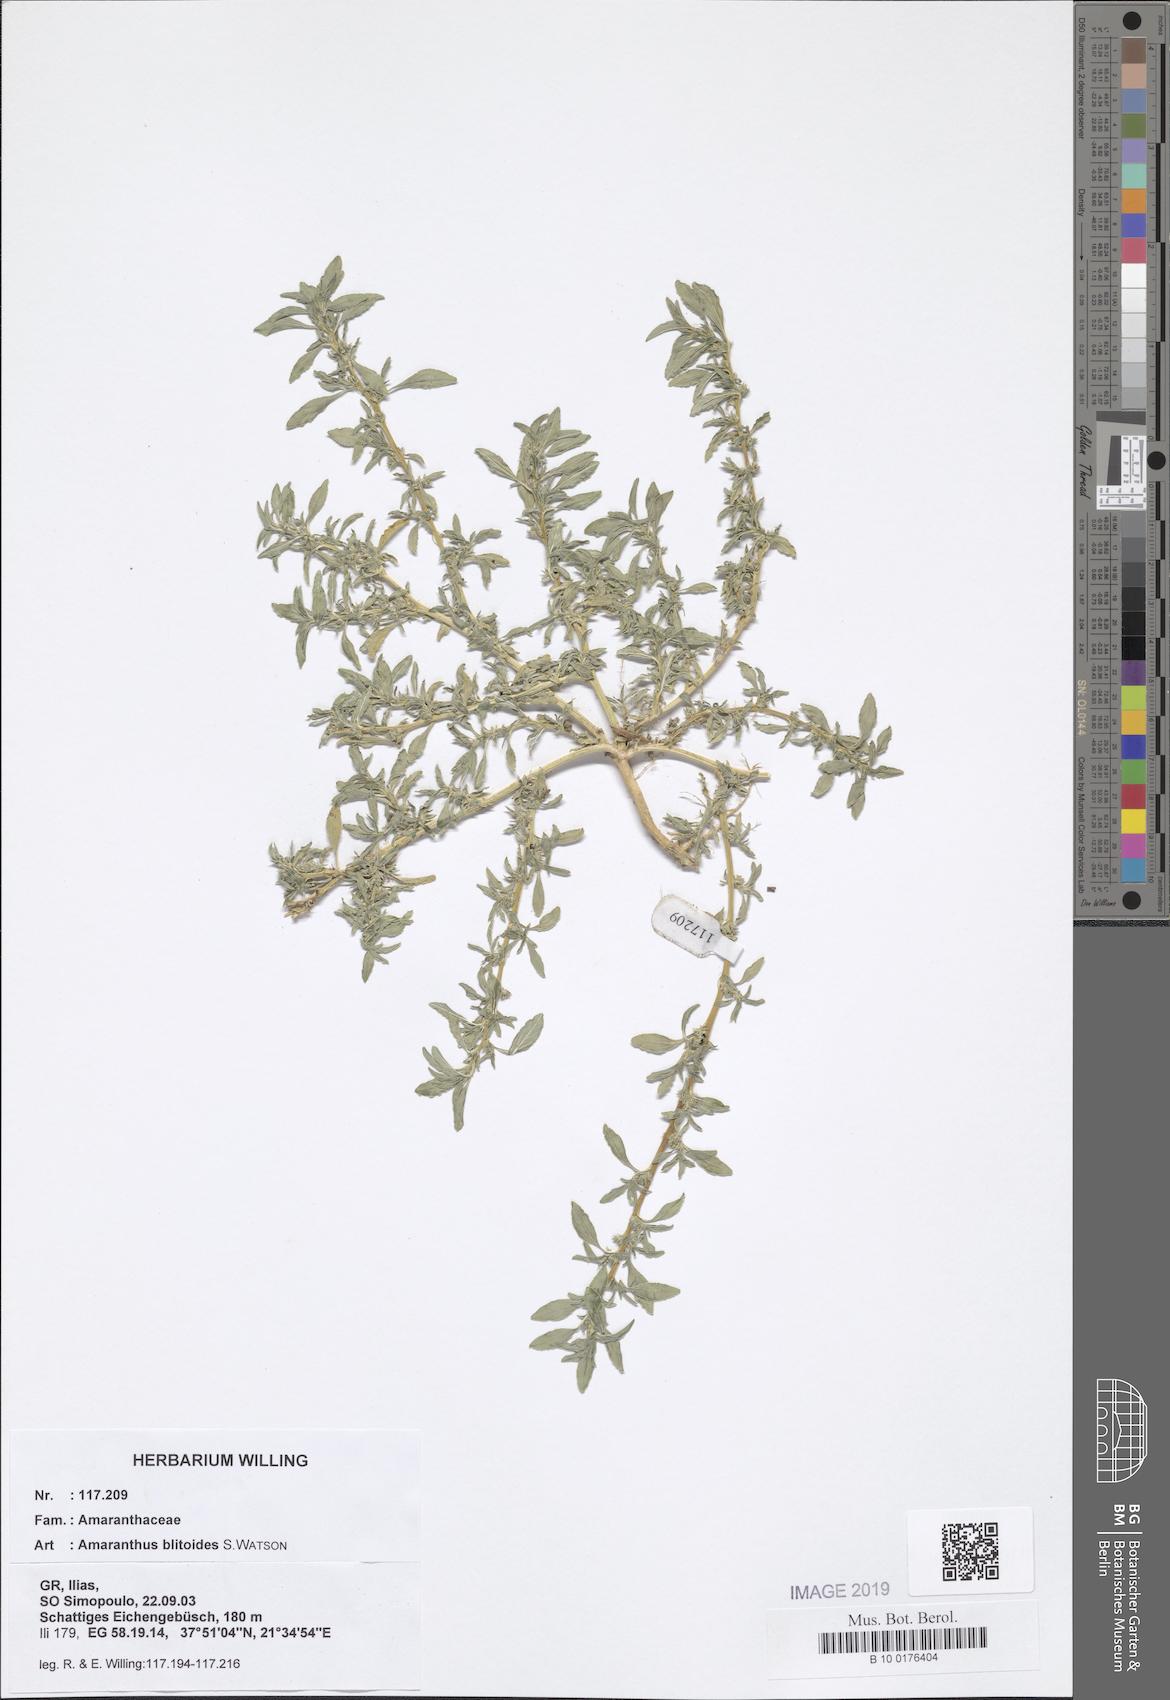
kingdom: Plantae
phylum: Tracheophyta
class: Magnoliopsida
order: Caryophyllales
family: Amaranthaceae
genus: Amaranthus
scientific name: Amaranthus blitoides
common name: Prostrate pigweed
